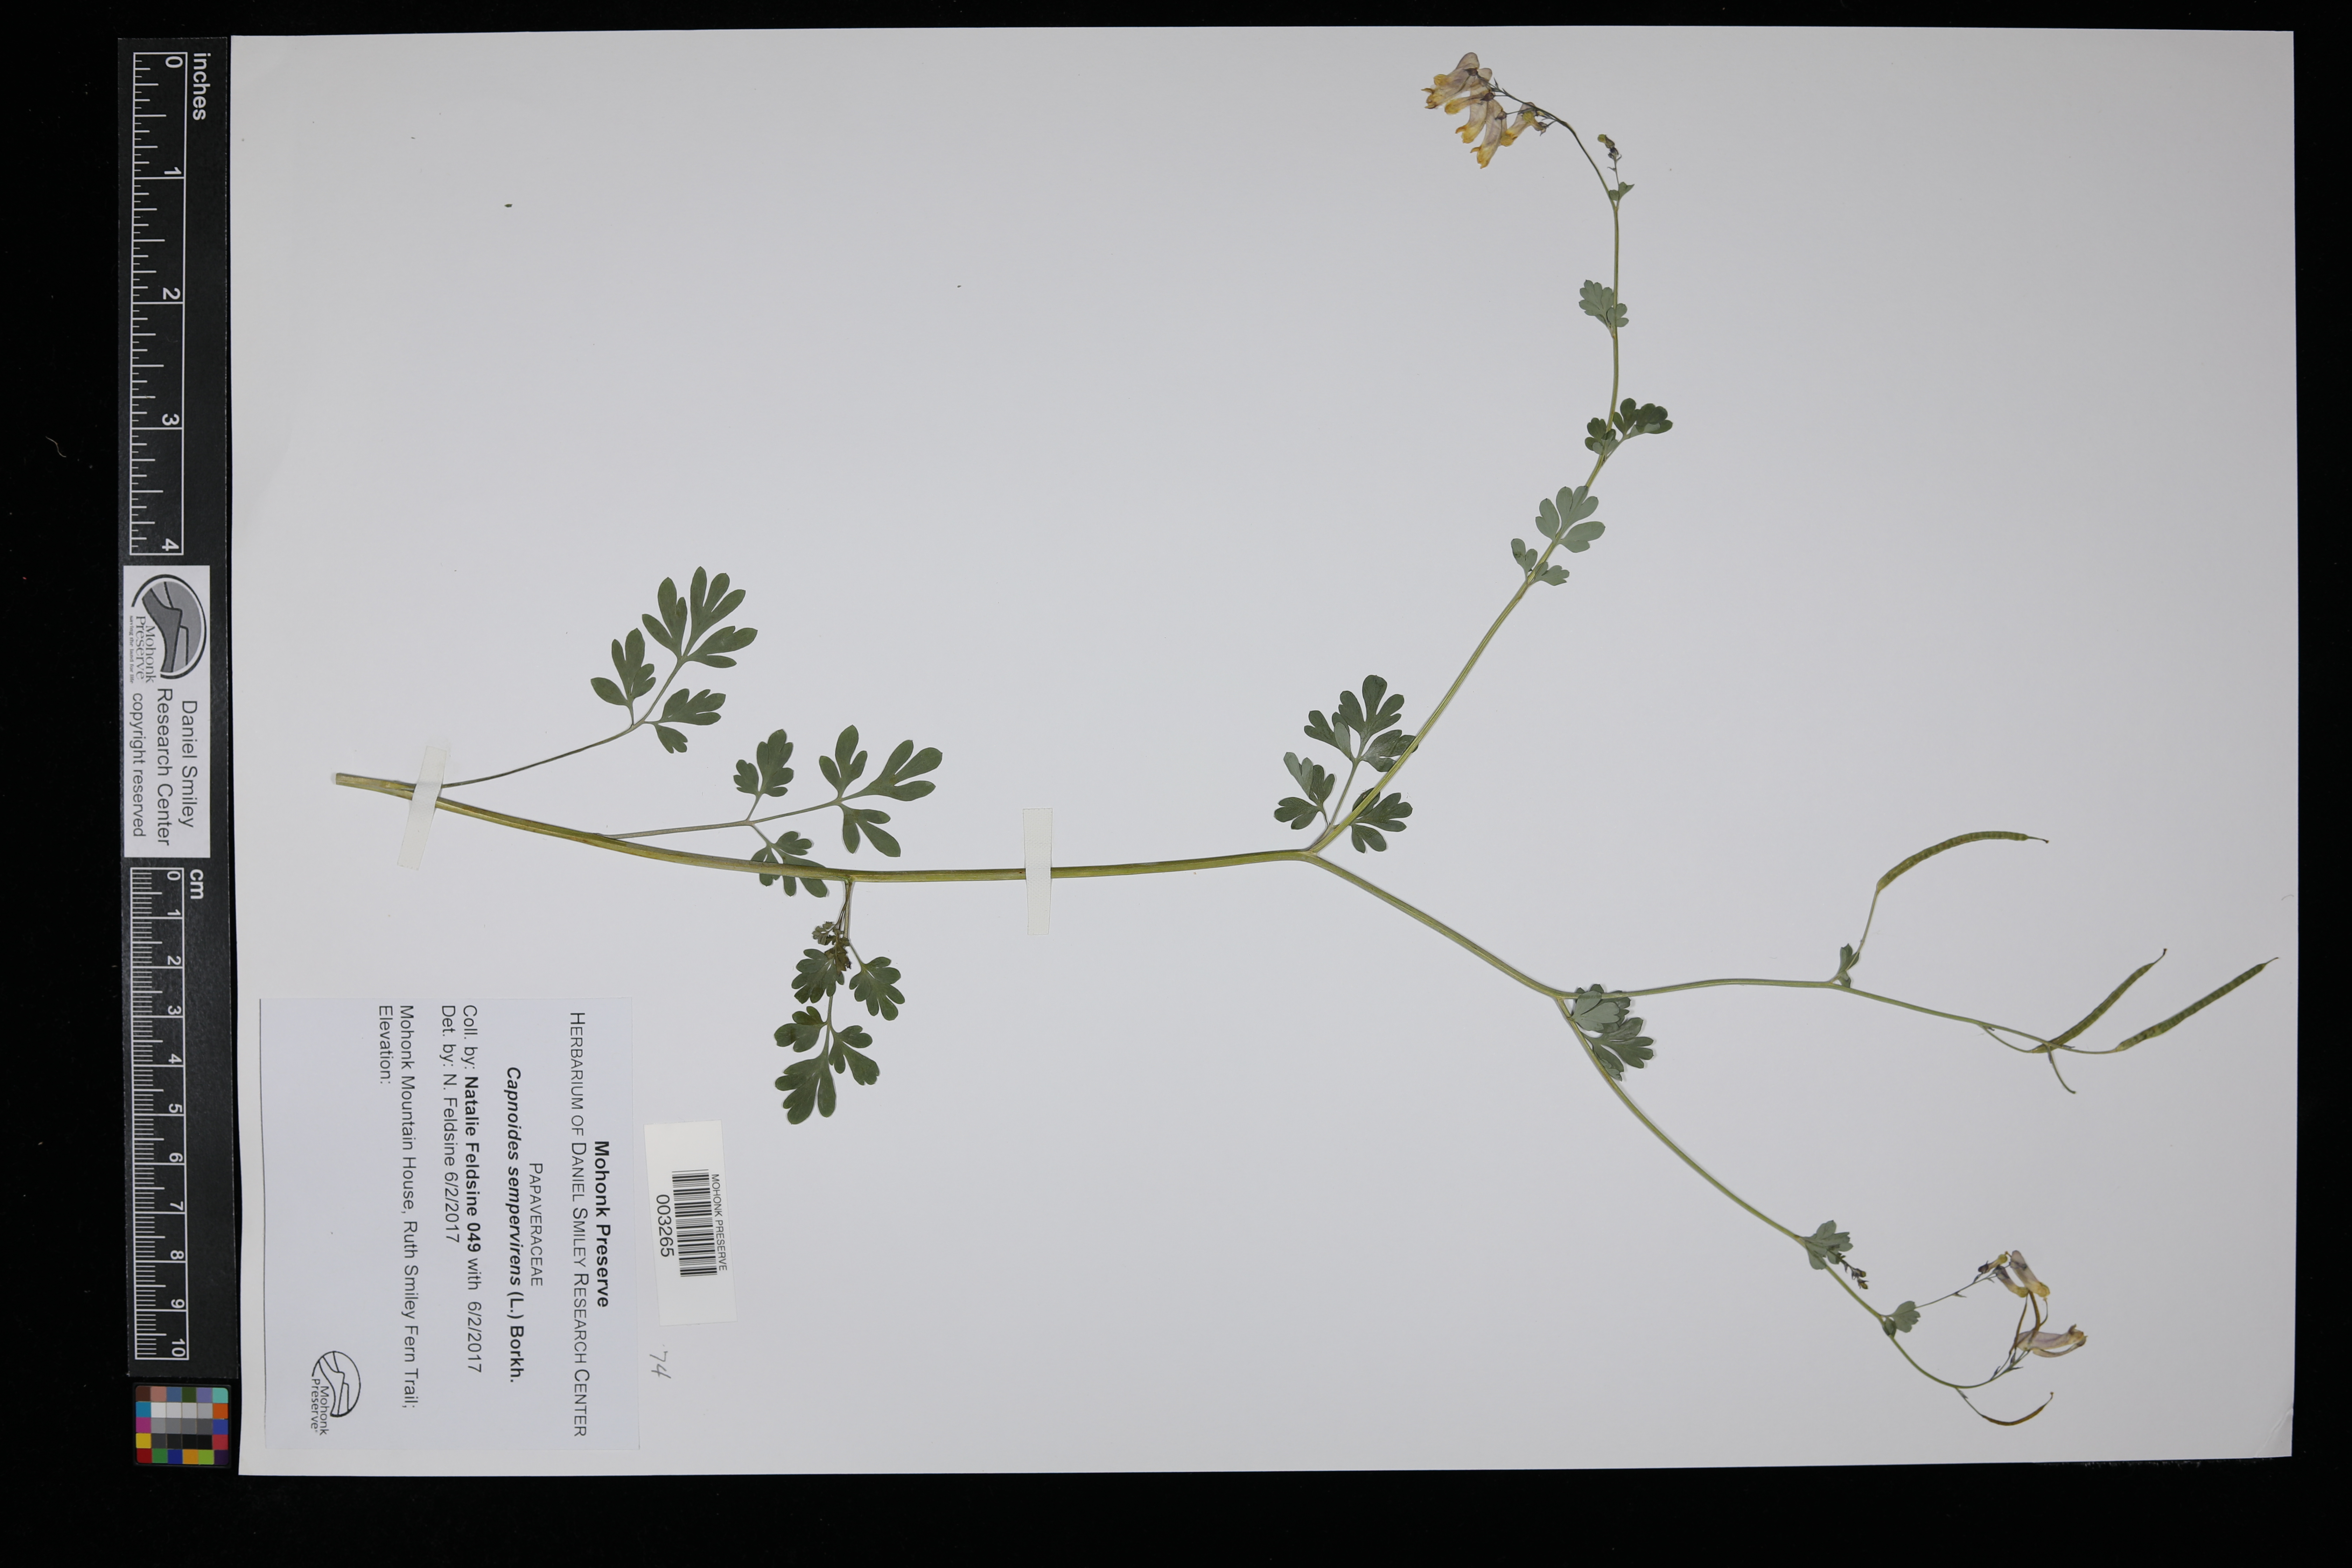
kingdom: Plantae
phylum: Tracheophyta
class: Magnoliopsida
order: Ranunculales
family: Papaveraceae
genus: Capnoides
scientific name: Capnoides sempervirens
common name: Rock harlequin
